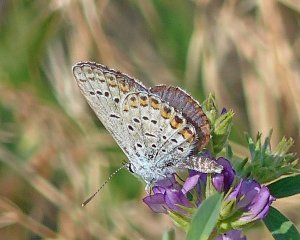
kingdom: Animalia
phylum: Arthropoda
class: Insecta
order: Lepidoptera
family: Lycaenidae
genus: Lycaeides
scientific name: Lycaeides melissa
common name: Melissa Blue
